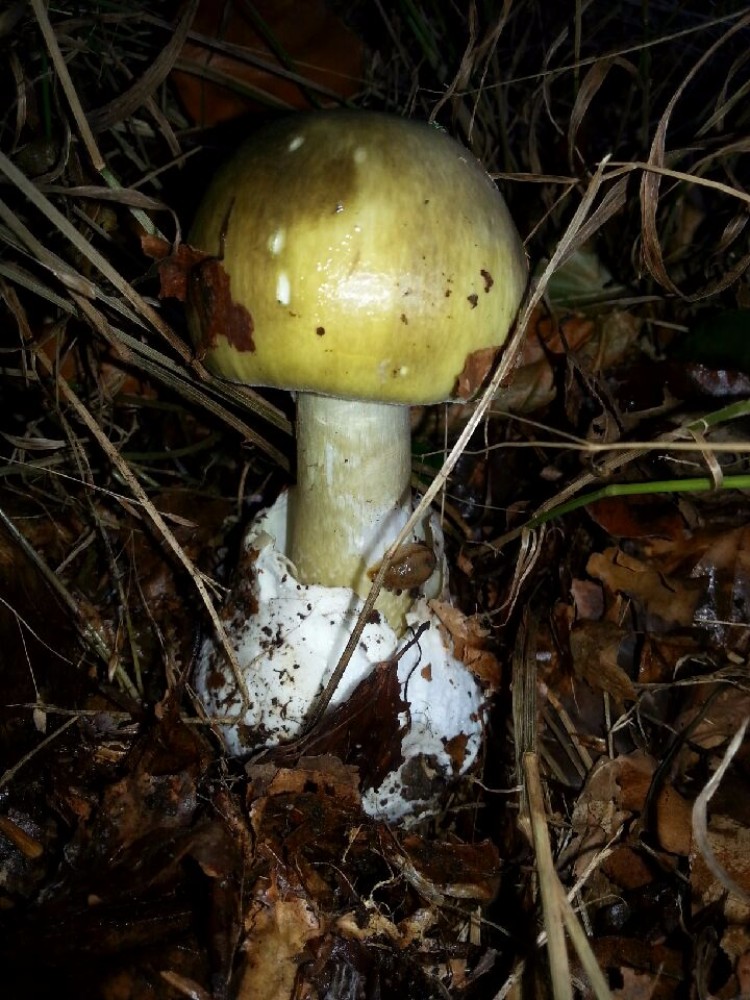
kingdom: Fungi
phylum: Basidiomycota
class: Agaricomycetes
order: Agaricales
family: Amanitaceae
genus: Amanita
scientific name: Amanita phalloides
